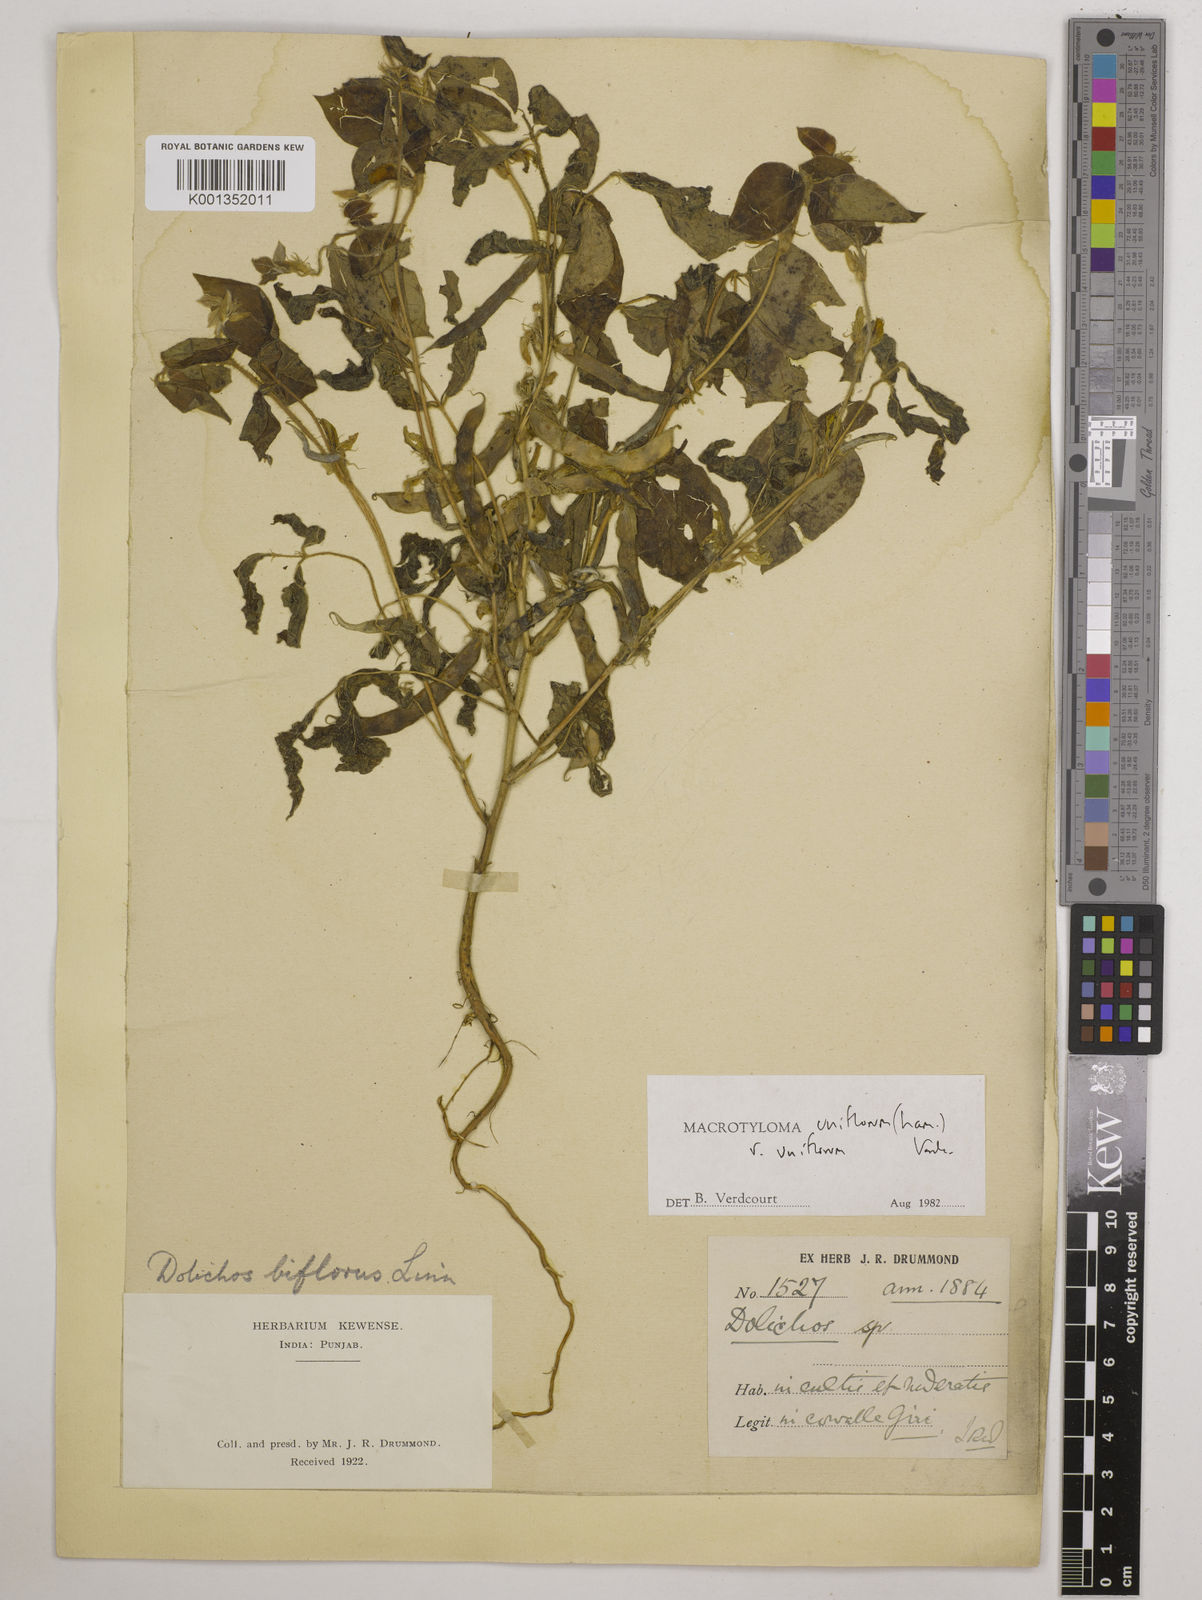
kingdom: Plantae
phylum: Tracheophyta
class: Magnoliopsida
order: Fabales
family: Fabaceae
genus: Macrotyloma
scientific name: Macrotyloma uniflorum
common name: Horse gram
